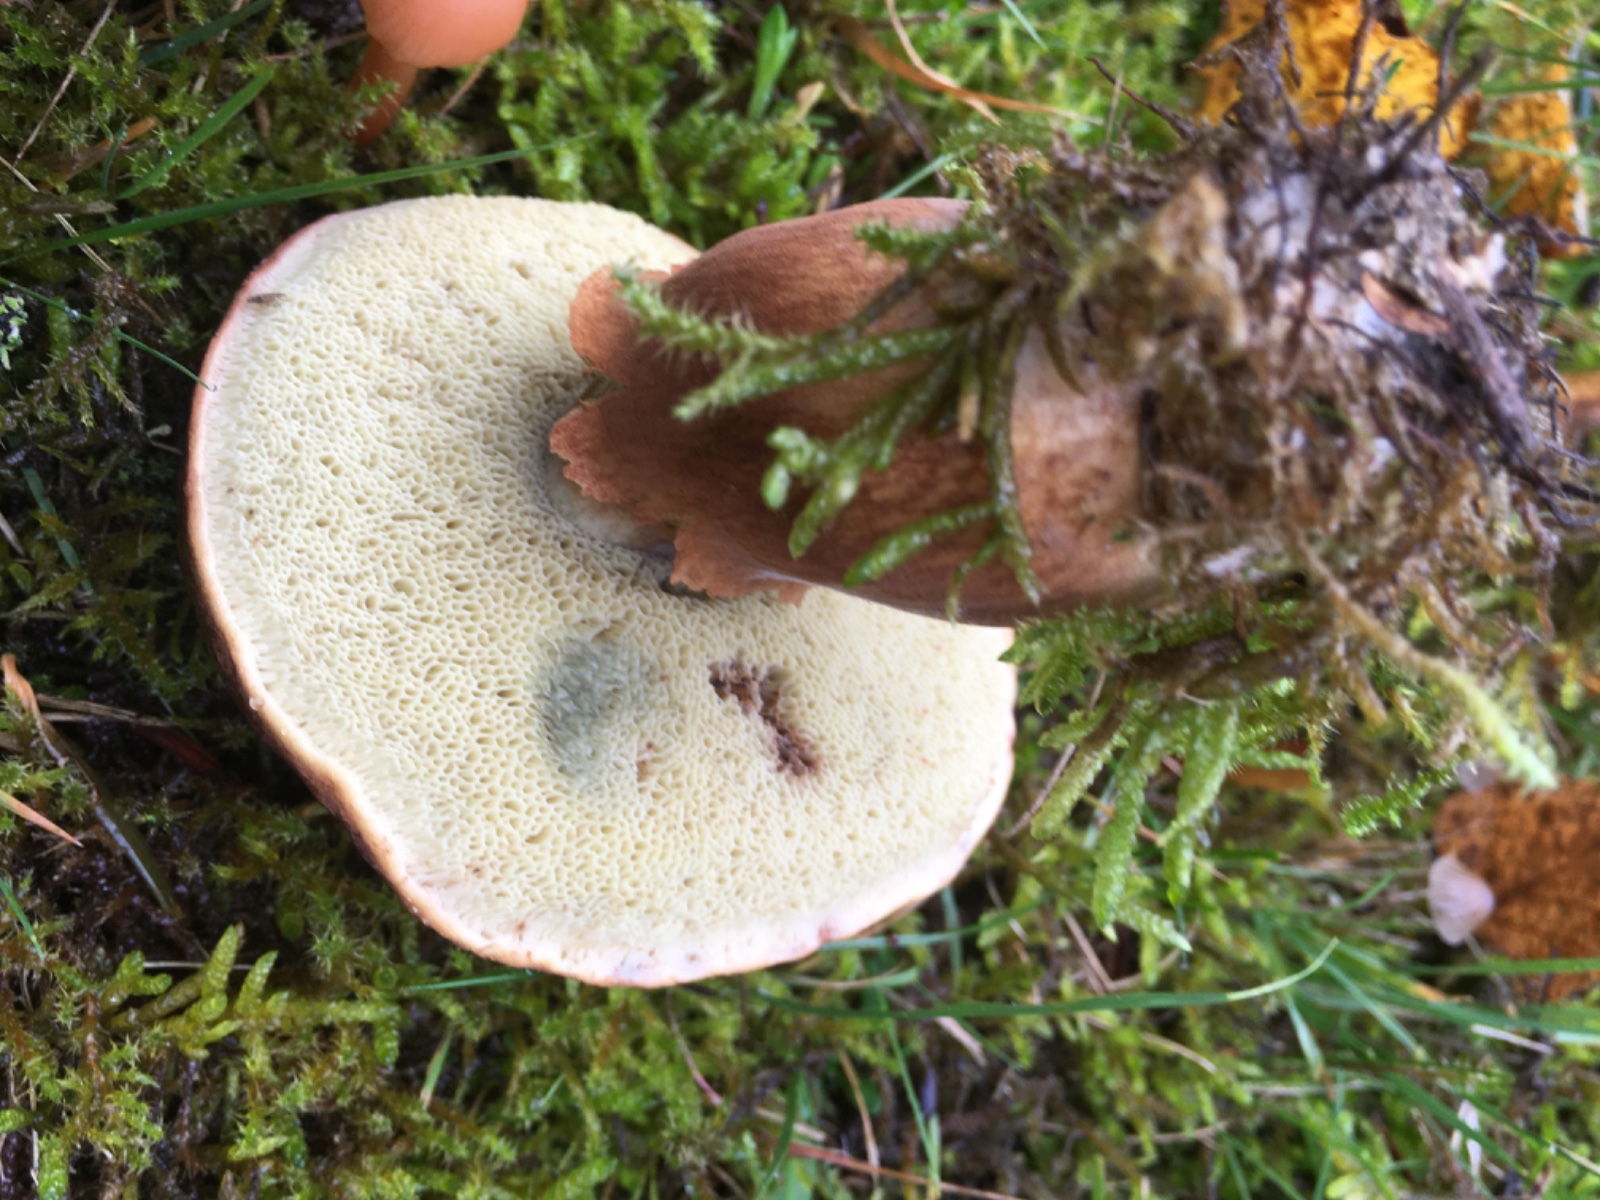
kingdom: Fungi
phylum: Basidiomycota
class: Agaricomycetes
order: Boletales
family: Boletaceae
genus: Imleria
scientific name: Imleria badia
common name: brunstokket rørhat
